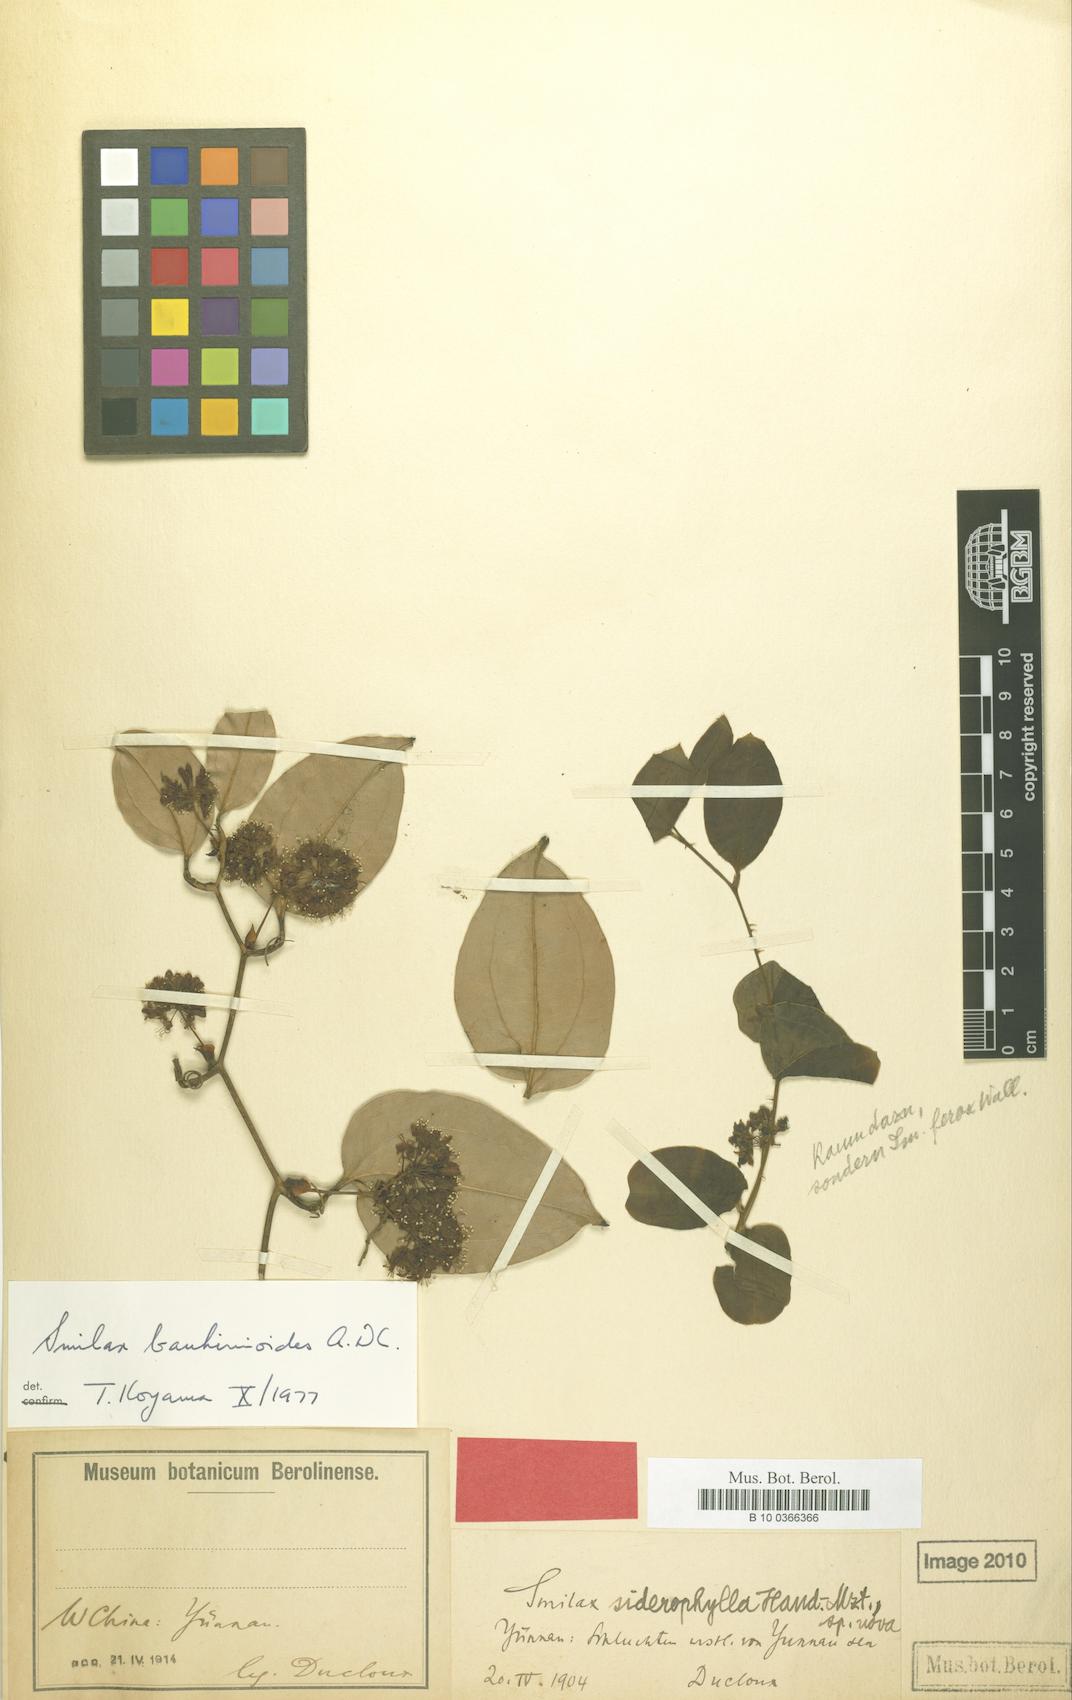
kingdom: Plantae
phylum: Tracheophyta
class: Liliopsida
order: Liliales
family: Smilacaceae
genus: Smilax
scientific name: Smilax bauhinioides
